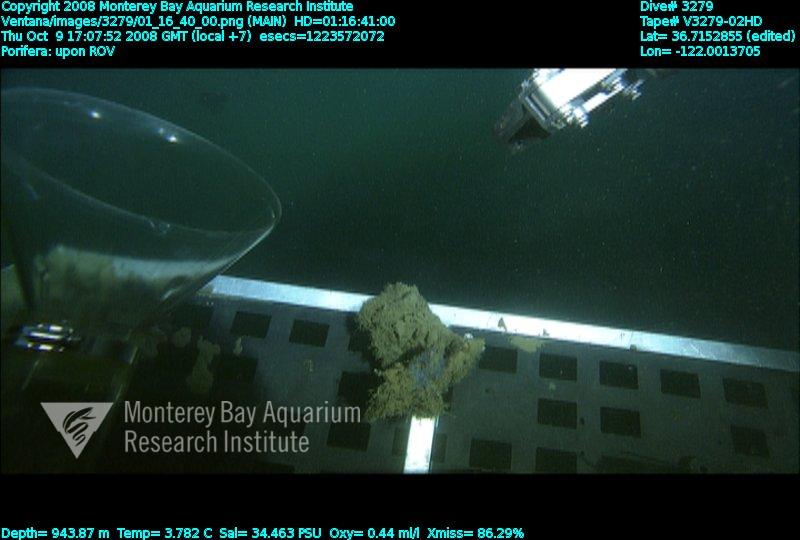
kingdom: Animalia
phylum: Porifera
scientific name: Porifera
